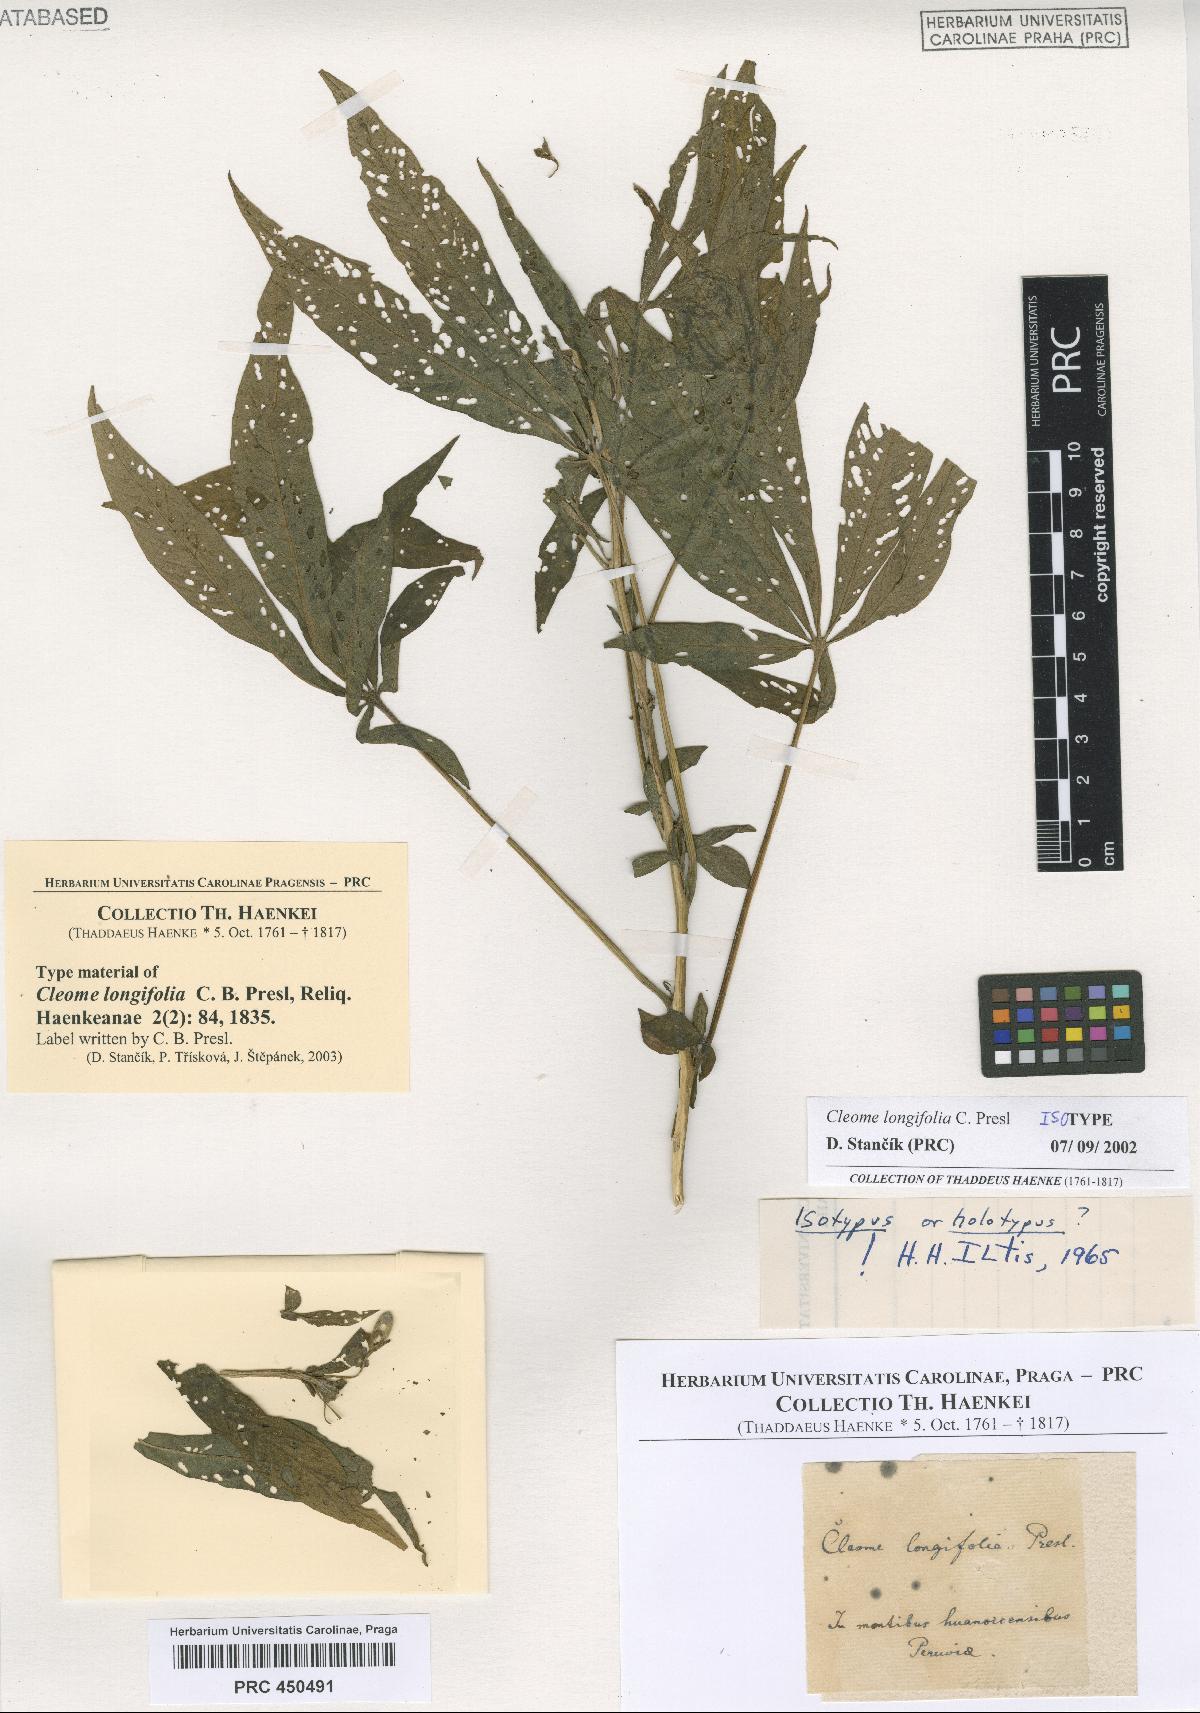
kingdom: Plantae
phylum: Tracheophyta
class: Magnoliopsida
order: Ranunculales
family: Ranunculaceae
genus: Clematis
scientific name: Clematis
